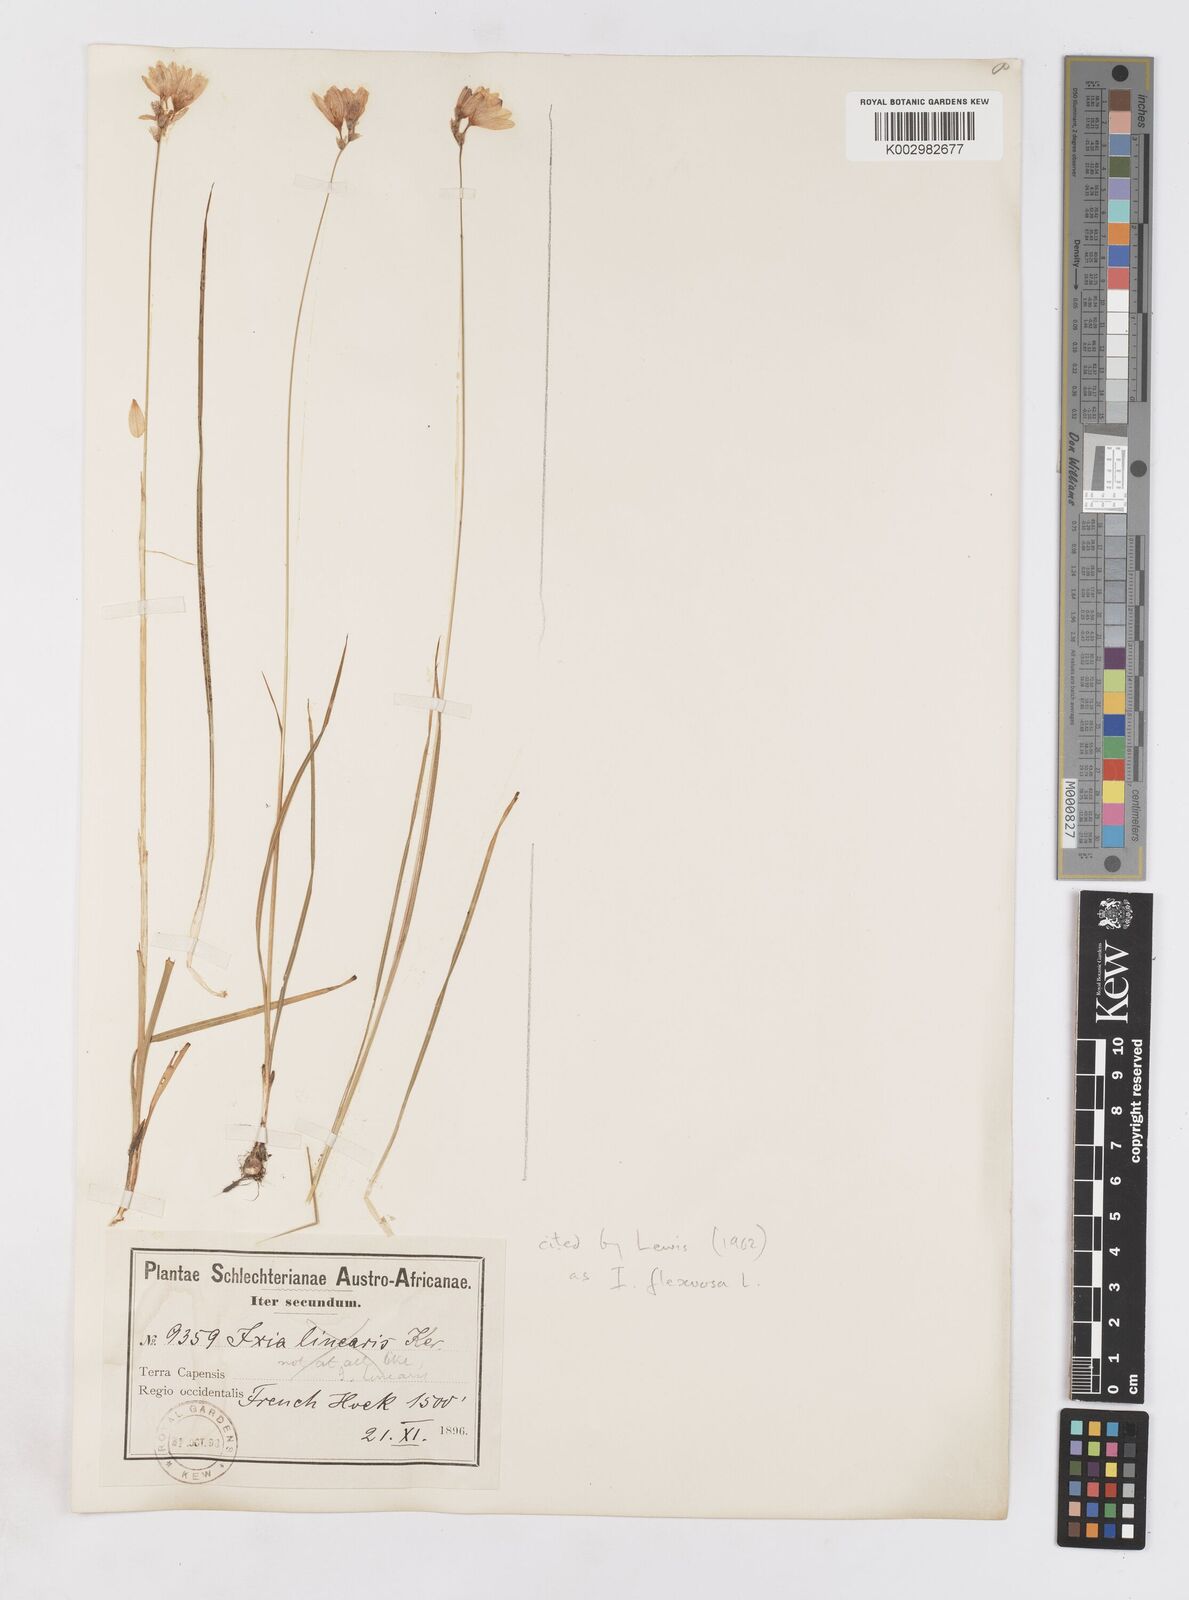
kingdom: Plantae
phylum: Tracheophyta
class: Liliopsida
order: Asparagales
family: Iridaceae
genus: Ixia
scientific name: Ixia flexuosa
